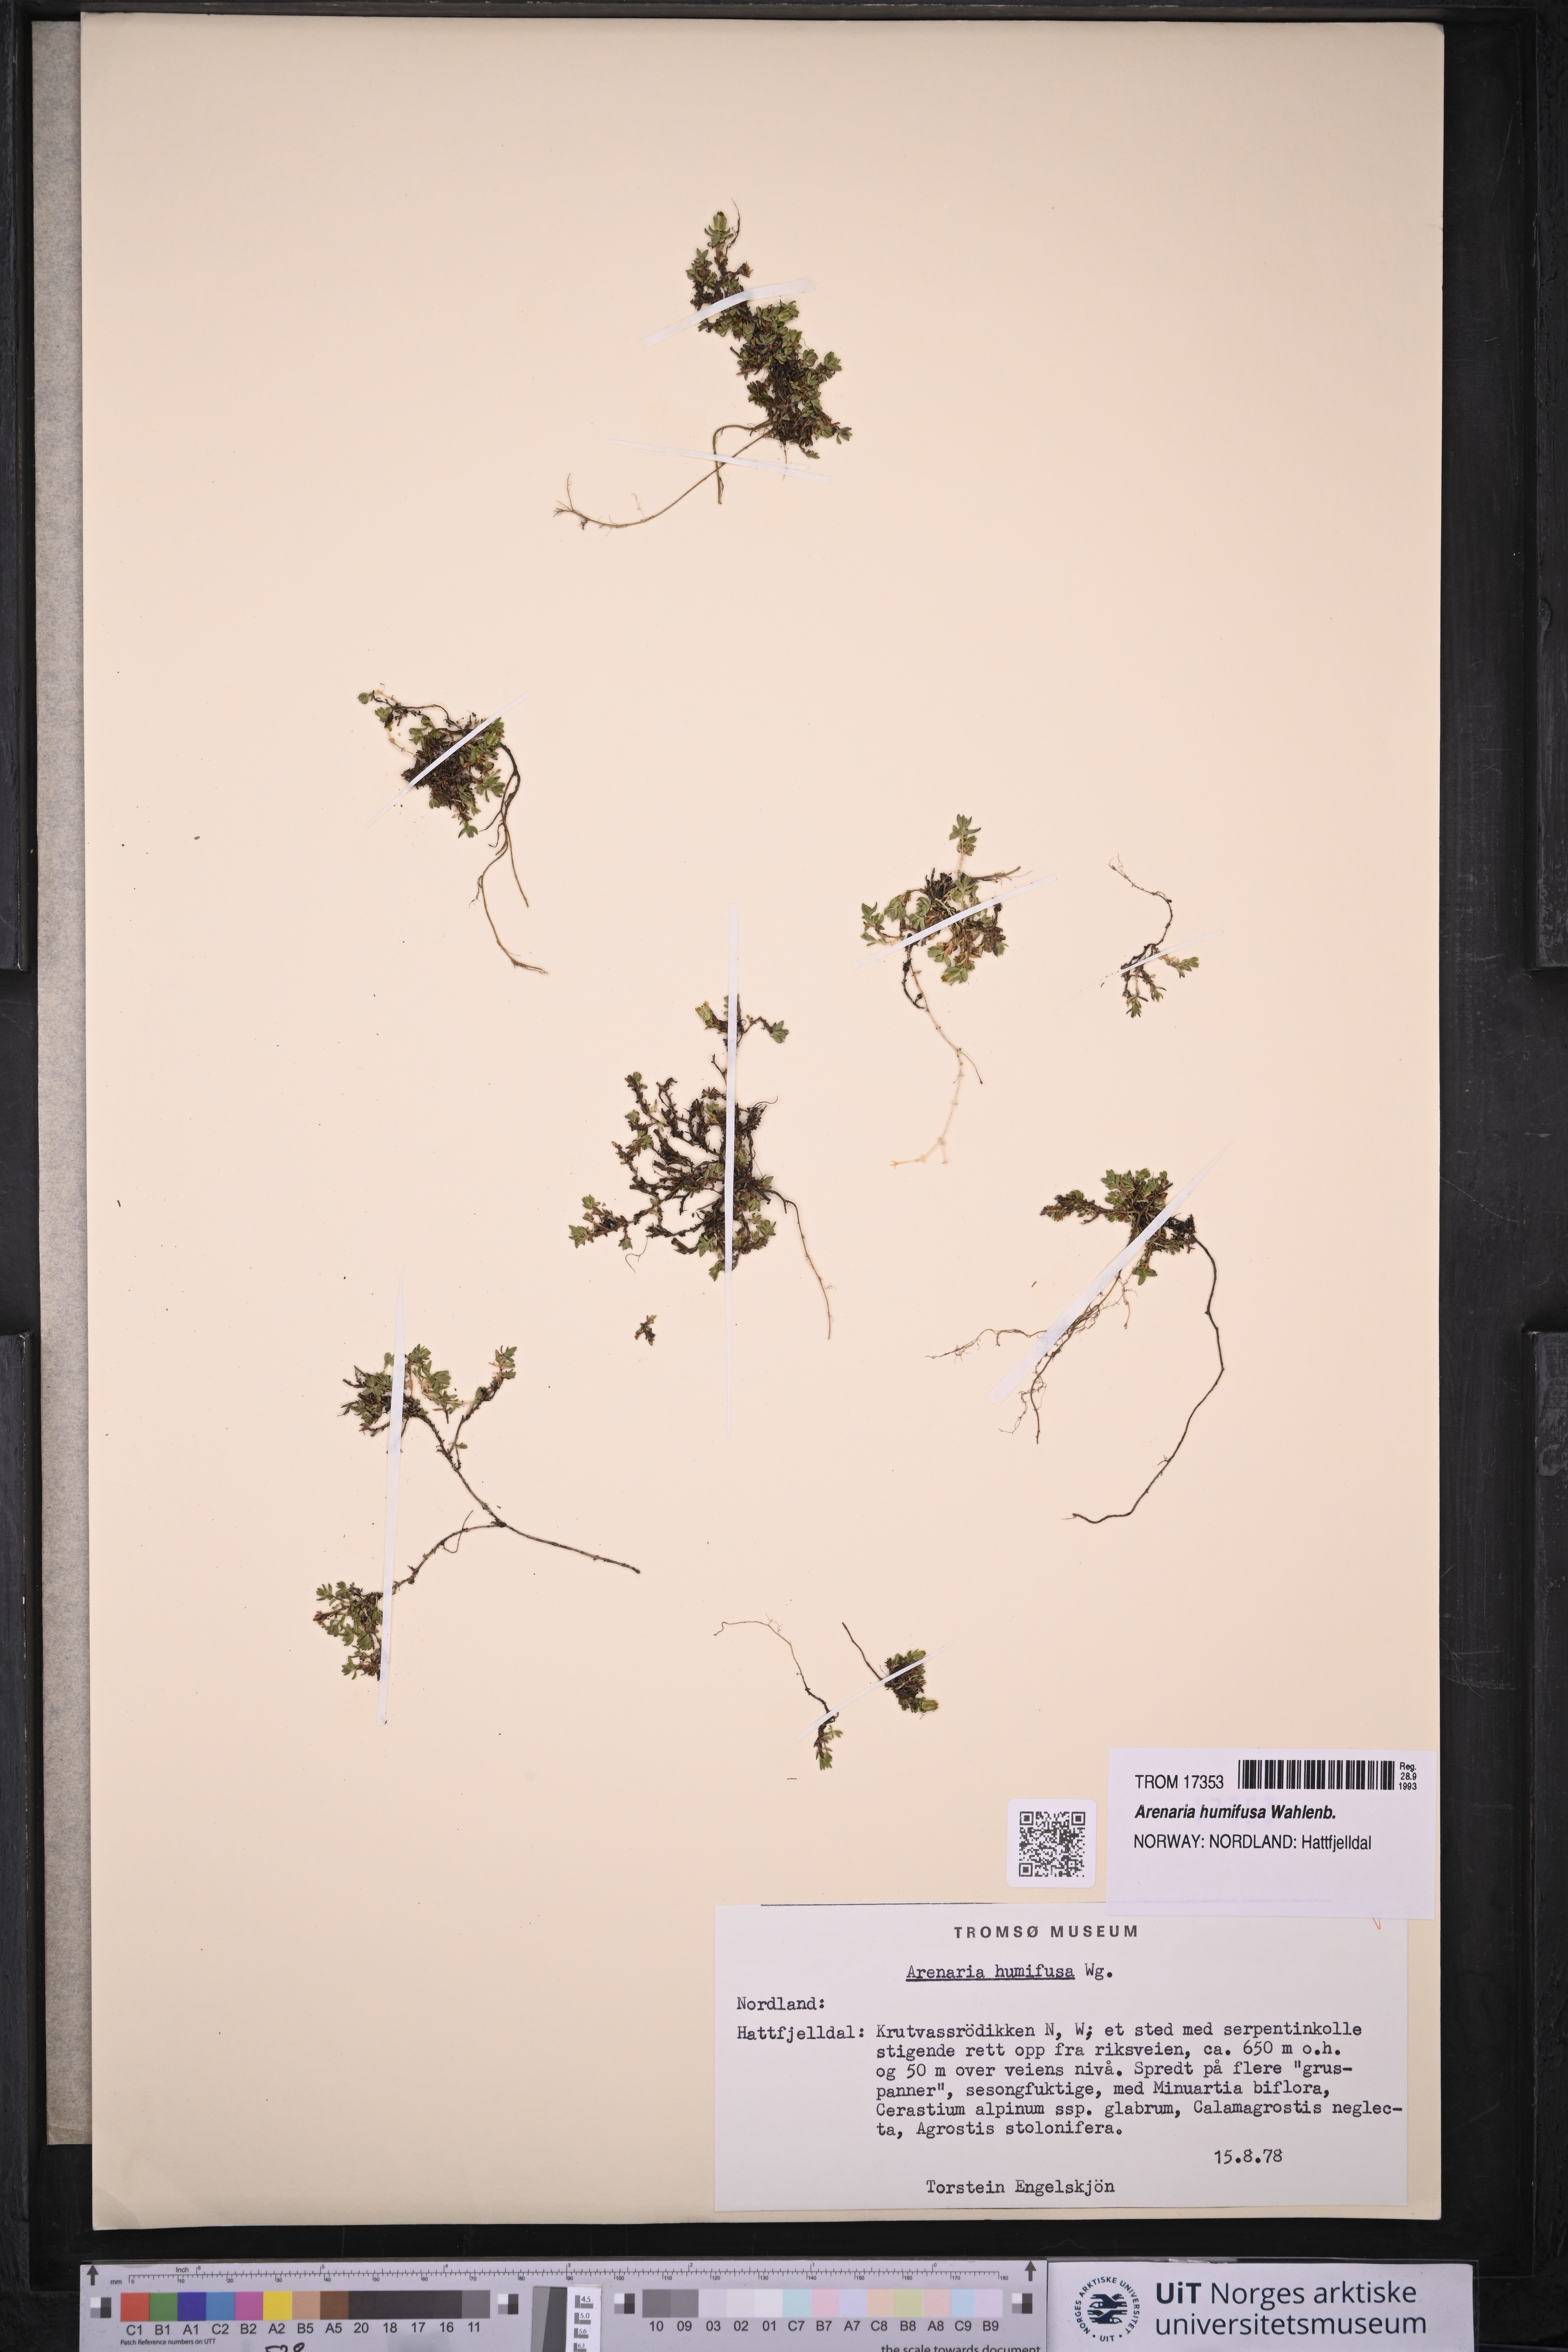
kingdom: Plantae
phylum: Tracheophyta
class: Magnoliopsida
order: Caryophyllales
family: Caryophyllaceae
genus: Arenaria
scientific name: Arenaria humifusa
